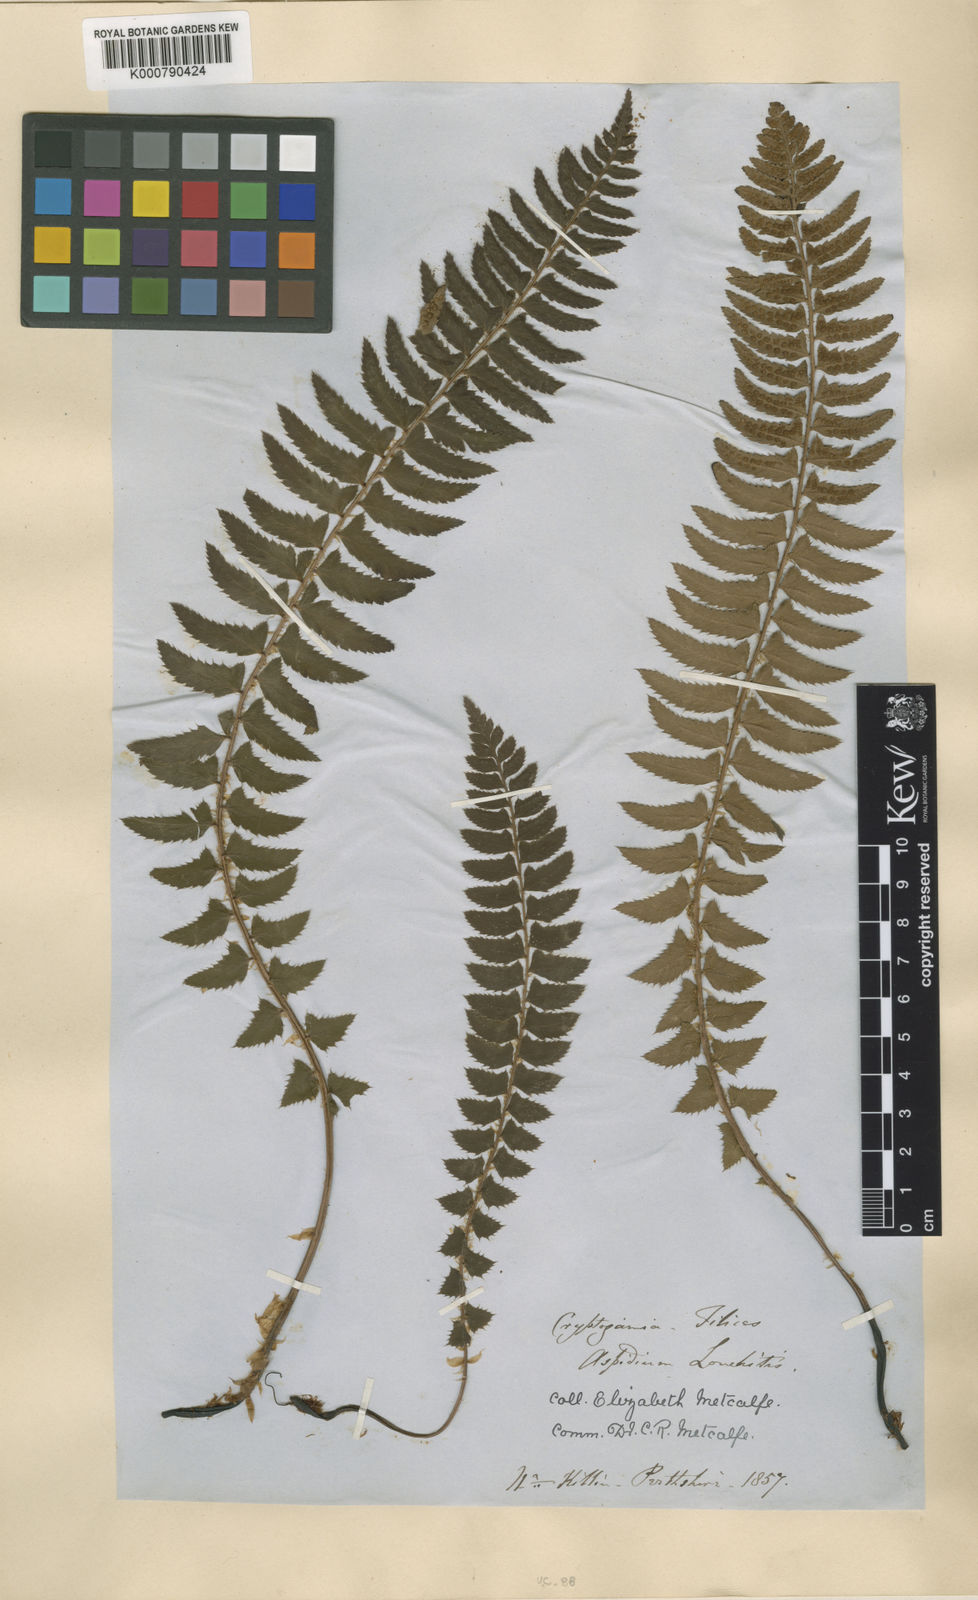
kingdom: Plantae
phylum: Tracheophyta
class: Polypodiopsida
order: Polypodiales
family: Dryopteridaceae
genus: Polystichum
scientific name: Polystichum
